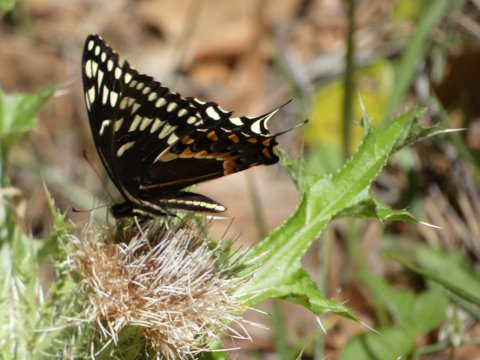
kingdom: Animalia
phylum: Arthropoda
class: Insecta
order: Lepidoptera
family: Papilionidae
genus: Pterourus
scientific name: Pterourus palamedes
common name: Palamedes Swallowtail
